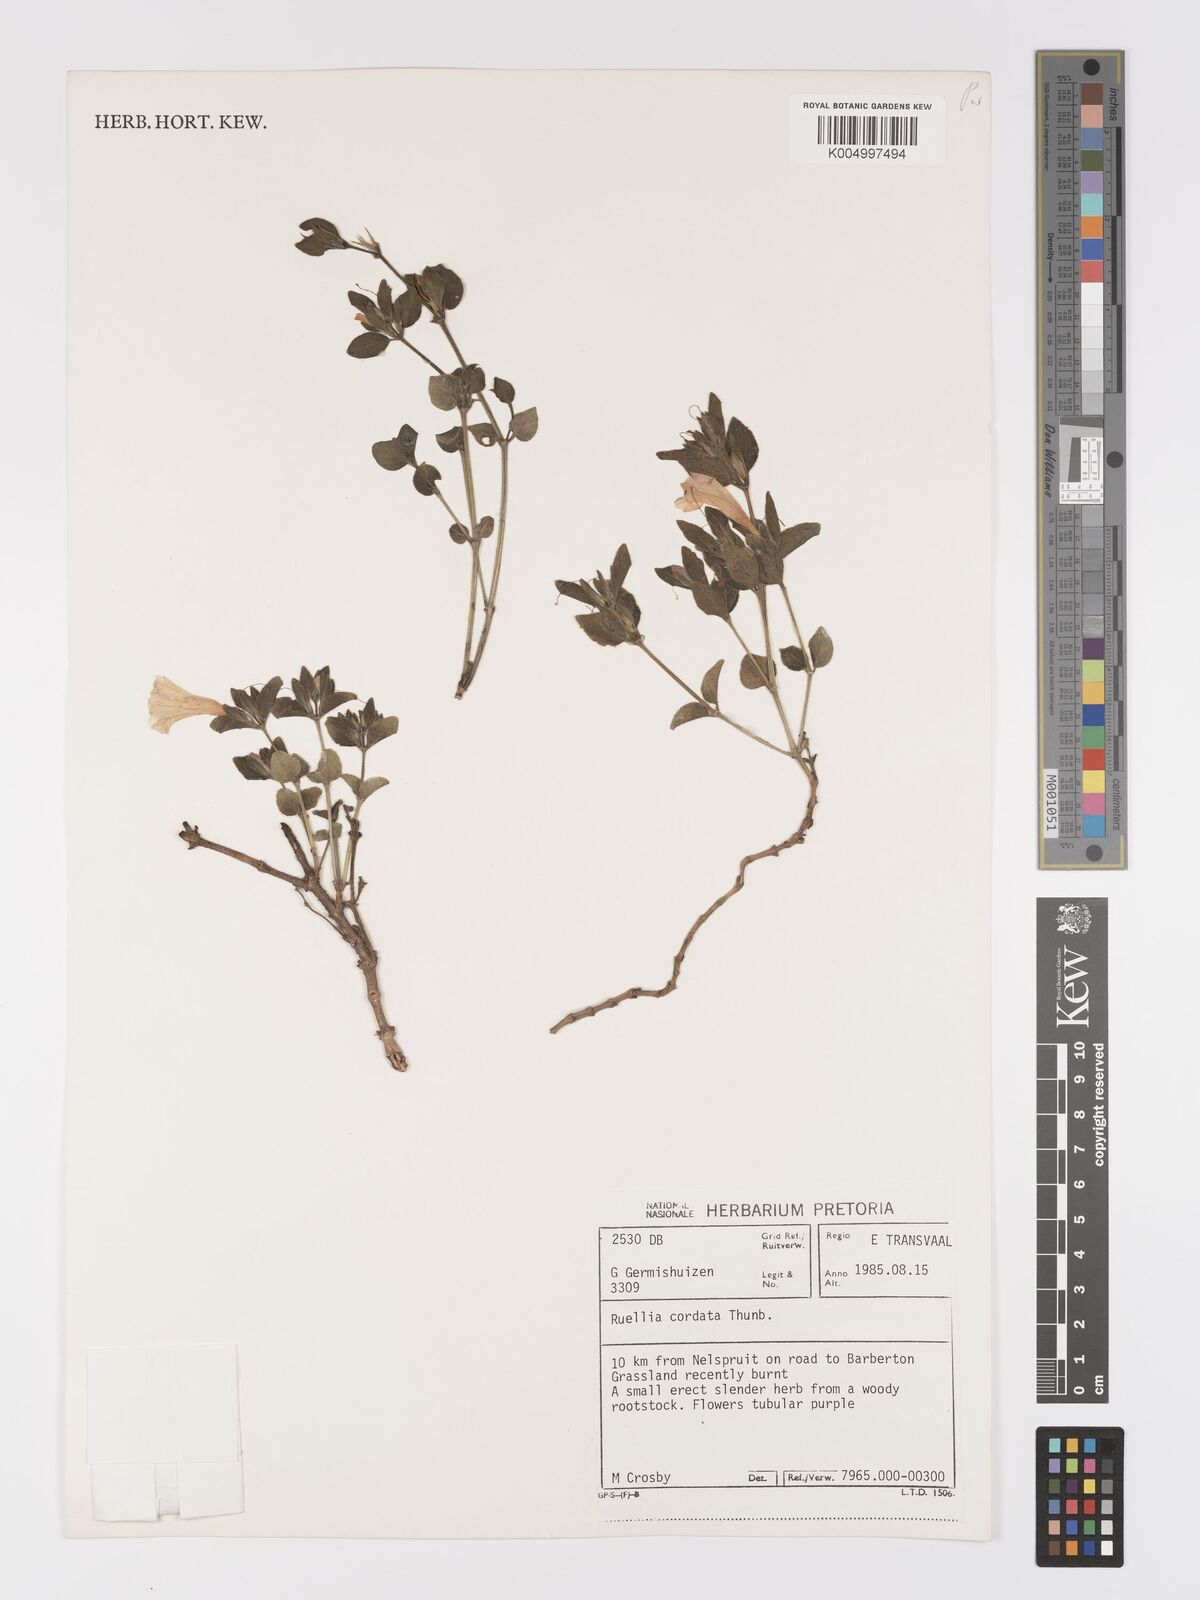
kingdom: Plantae
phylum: Tracheophyta
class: Magnoliopsida
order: Lamiales
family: Acanthaceae
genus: Ruellia
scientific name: Ruellia cordata
